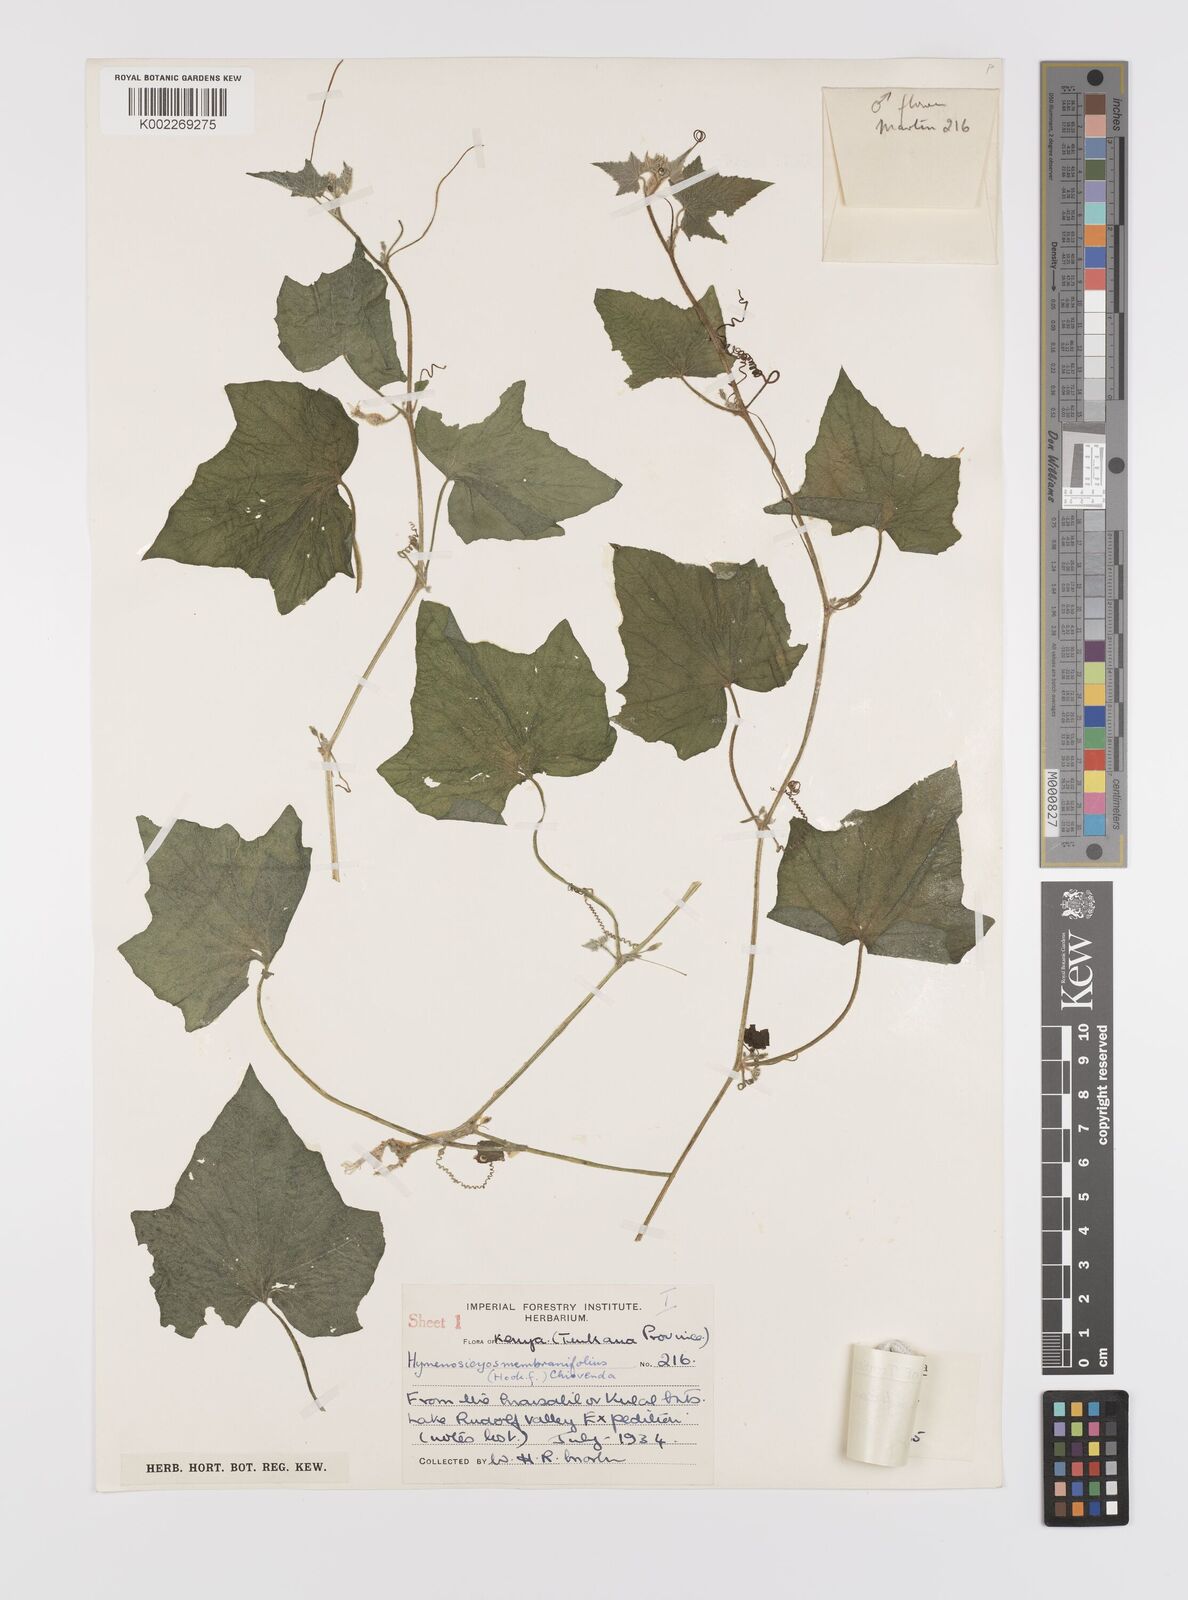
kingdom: Plantae
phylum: Tracheophyta
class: Magnoliopsida
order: Cucurbitales
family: Cucurbitaceae
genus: Cucumis
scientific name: Cucumis oreosyce
